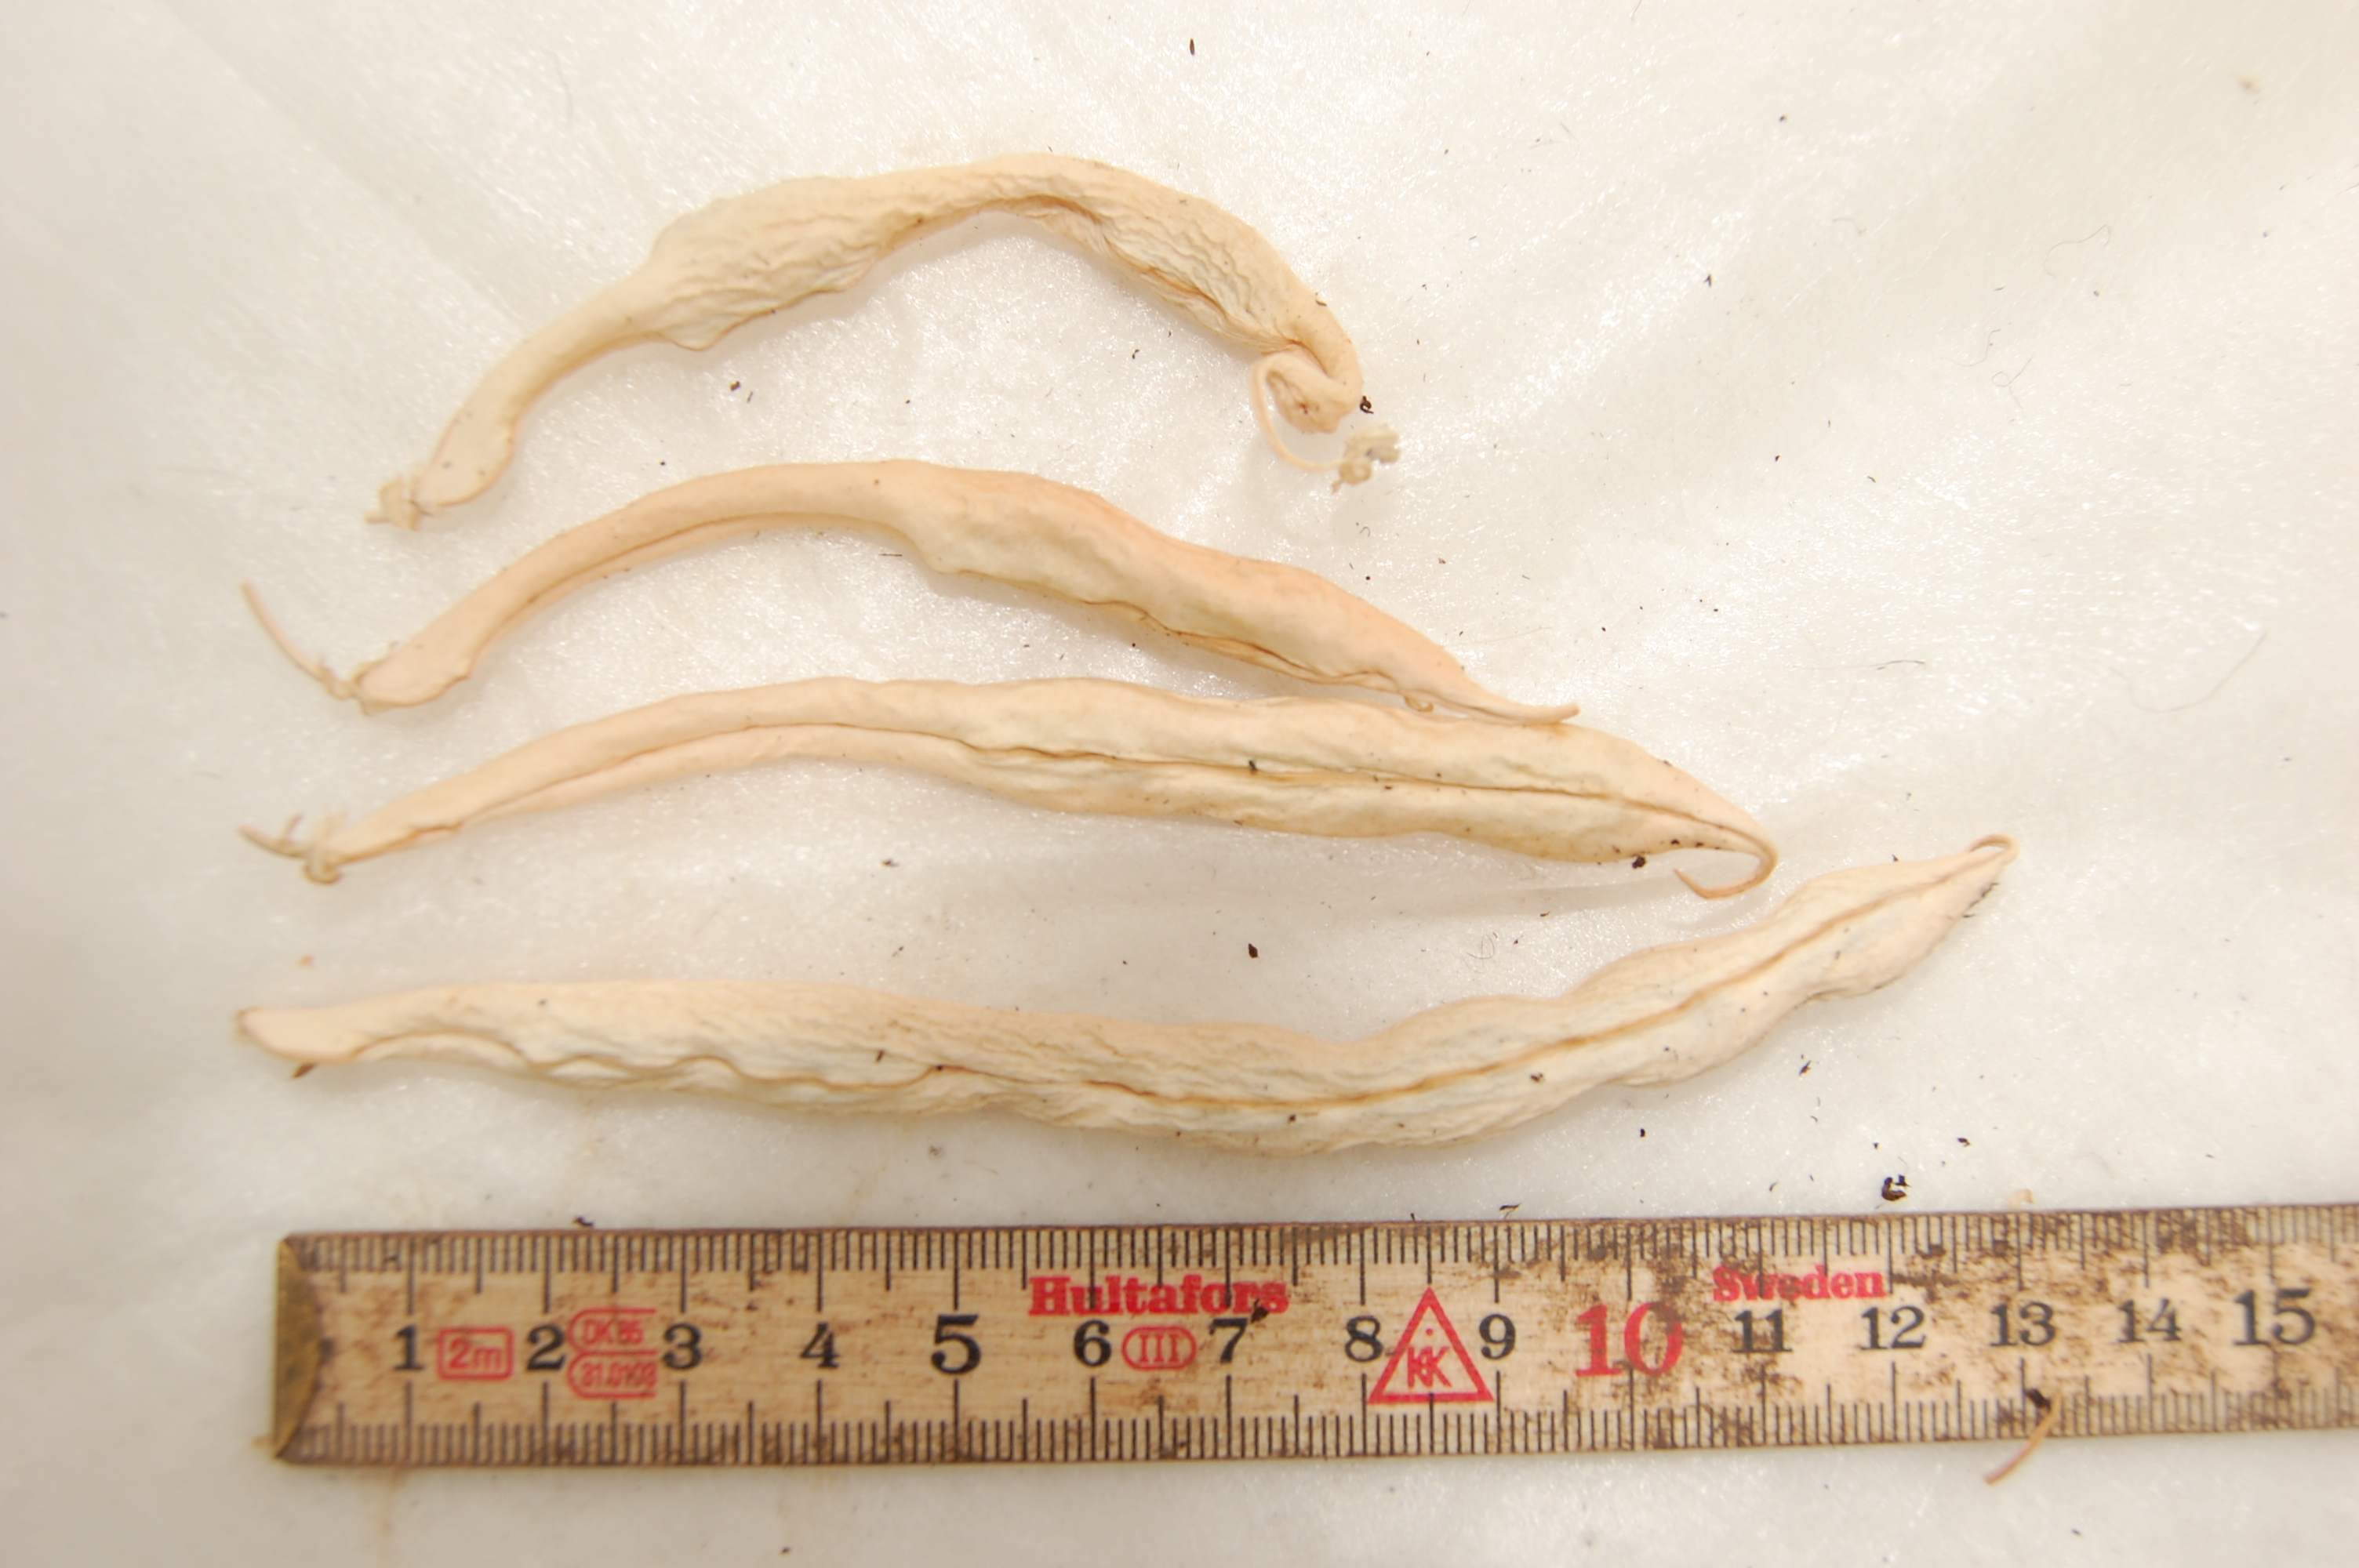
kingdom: Plantae
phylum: Tracheophyta
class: Magnoliopsida
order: Fabales
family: Fabaceae
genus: Phaseolus
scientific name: Phaseolus vulgaris
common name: Bean
